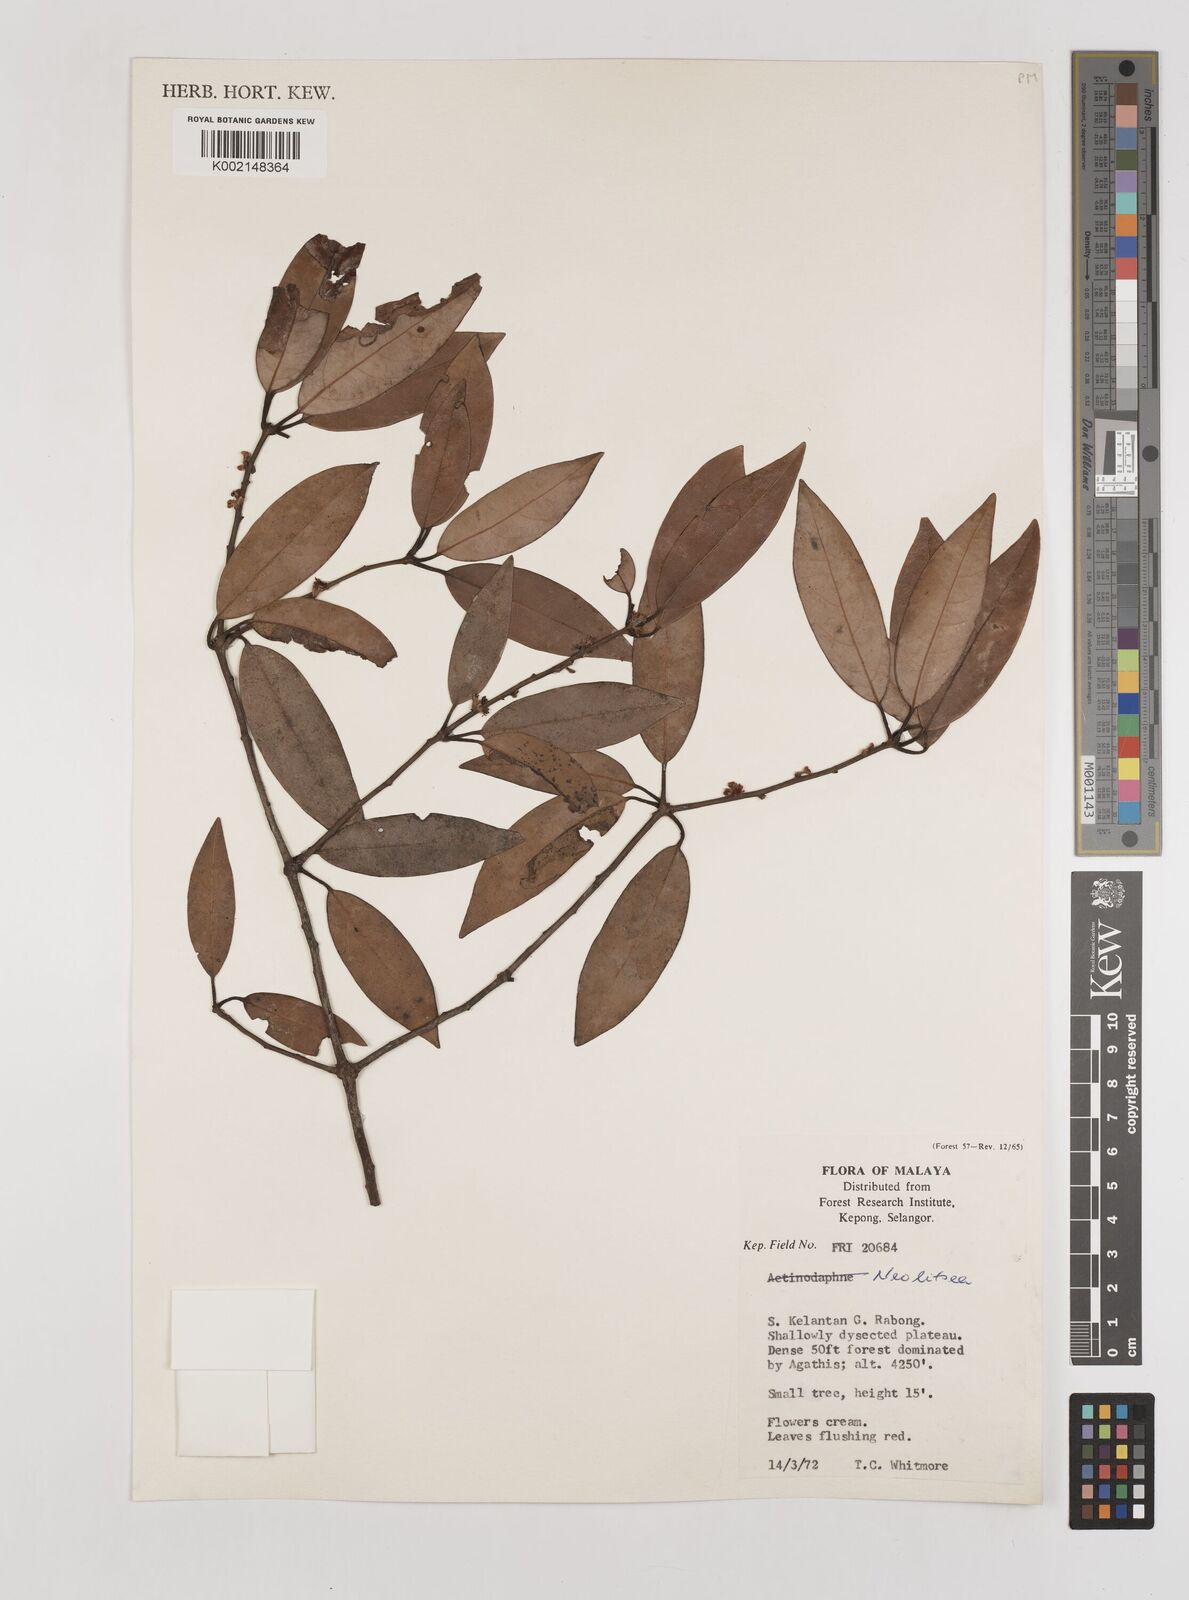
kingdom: Plantae
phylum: Tracheophyta
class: Magnoliopsida
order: Laurales
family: Lauraceae
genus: Neolitsea
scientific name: Neolitsea
